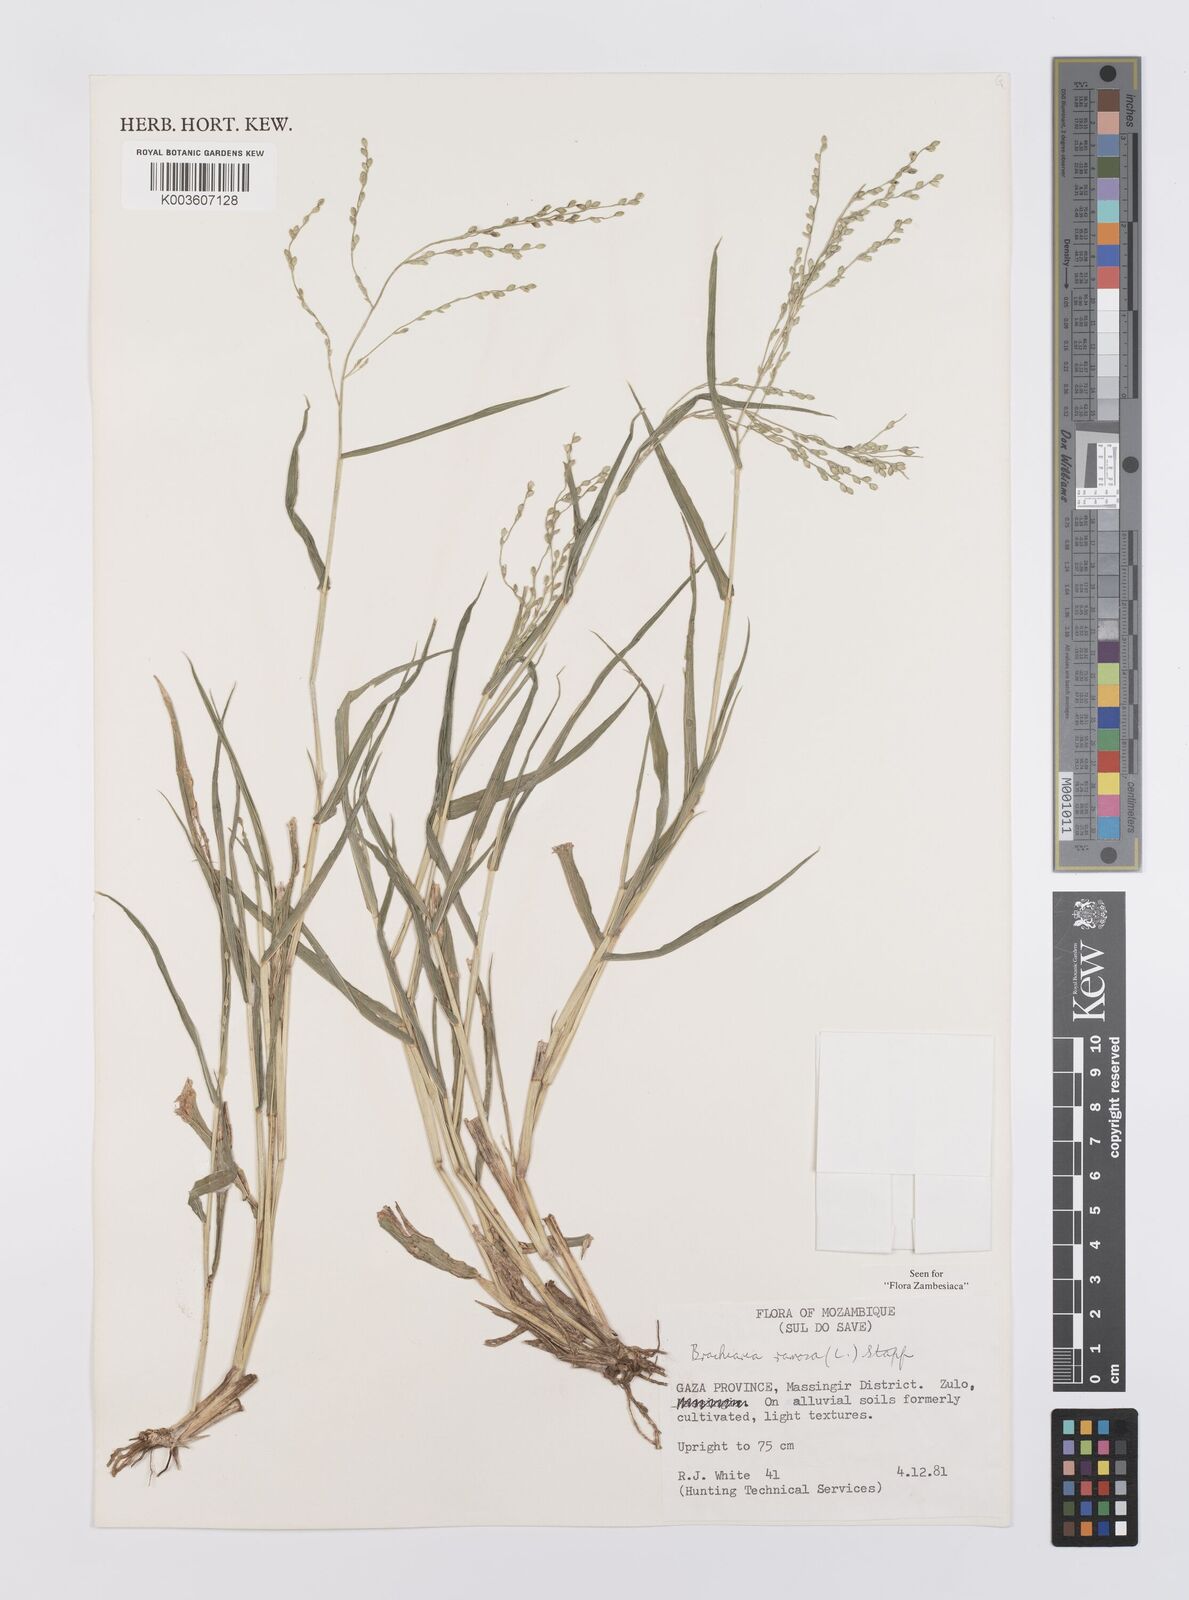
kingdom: Plantae
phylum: Tracheophyta
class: Liliopsida
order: Poales
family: Poaceae
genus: Urochloa
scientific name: Urochloa ramosa
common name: Browntop millet
